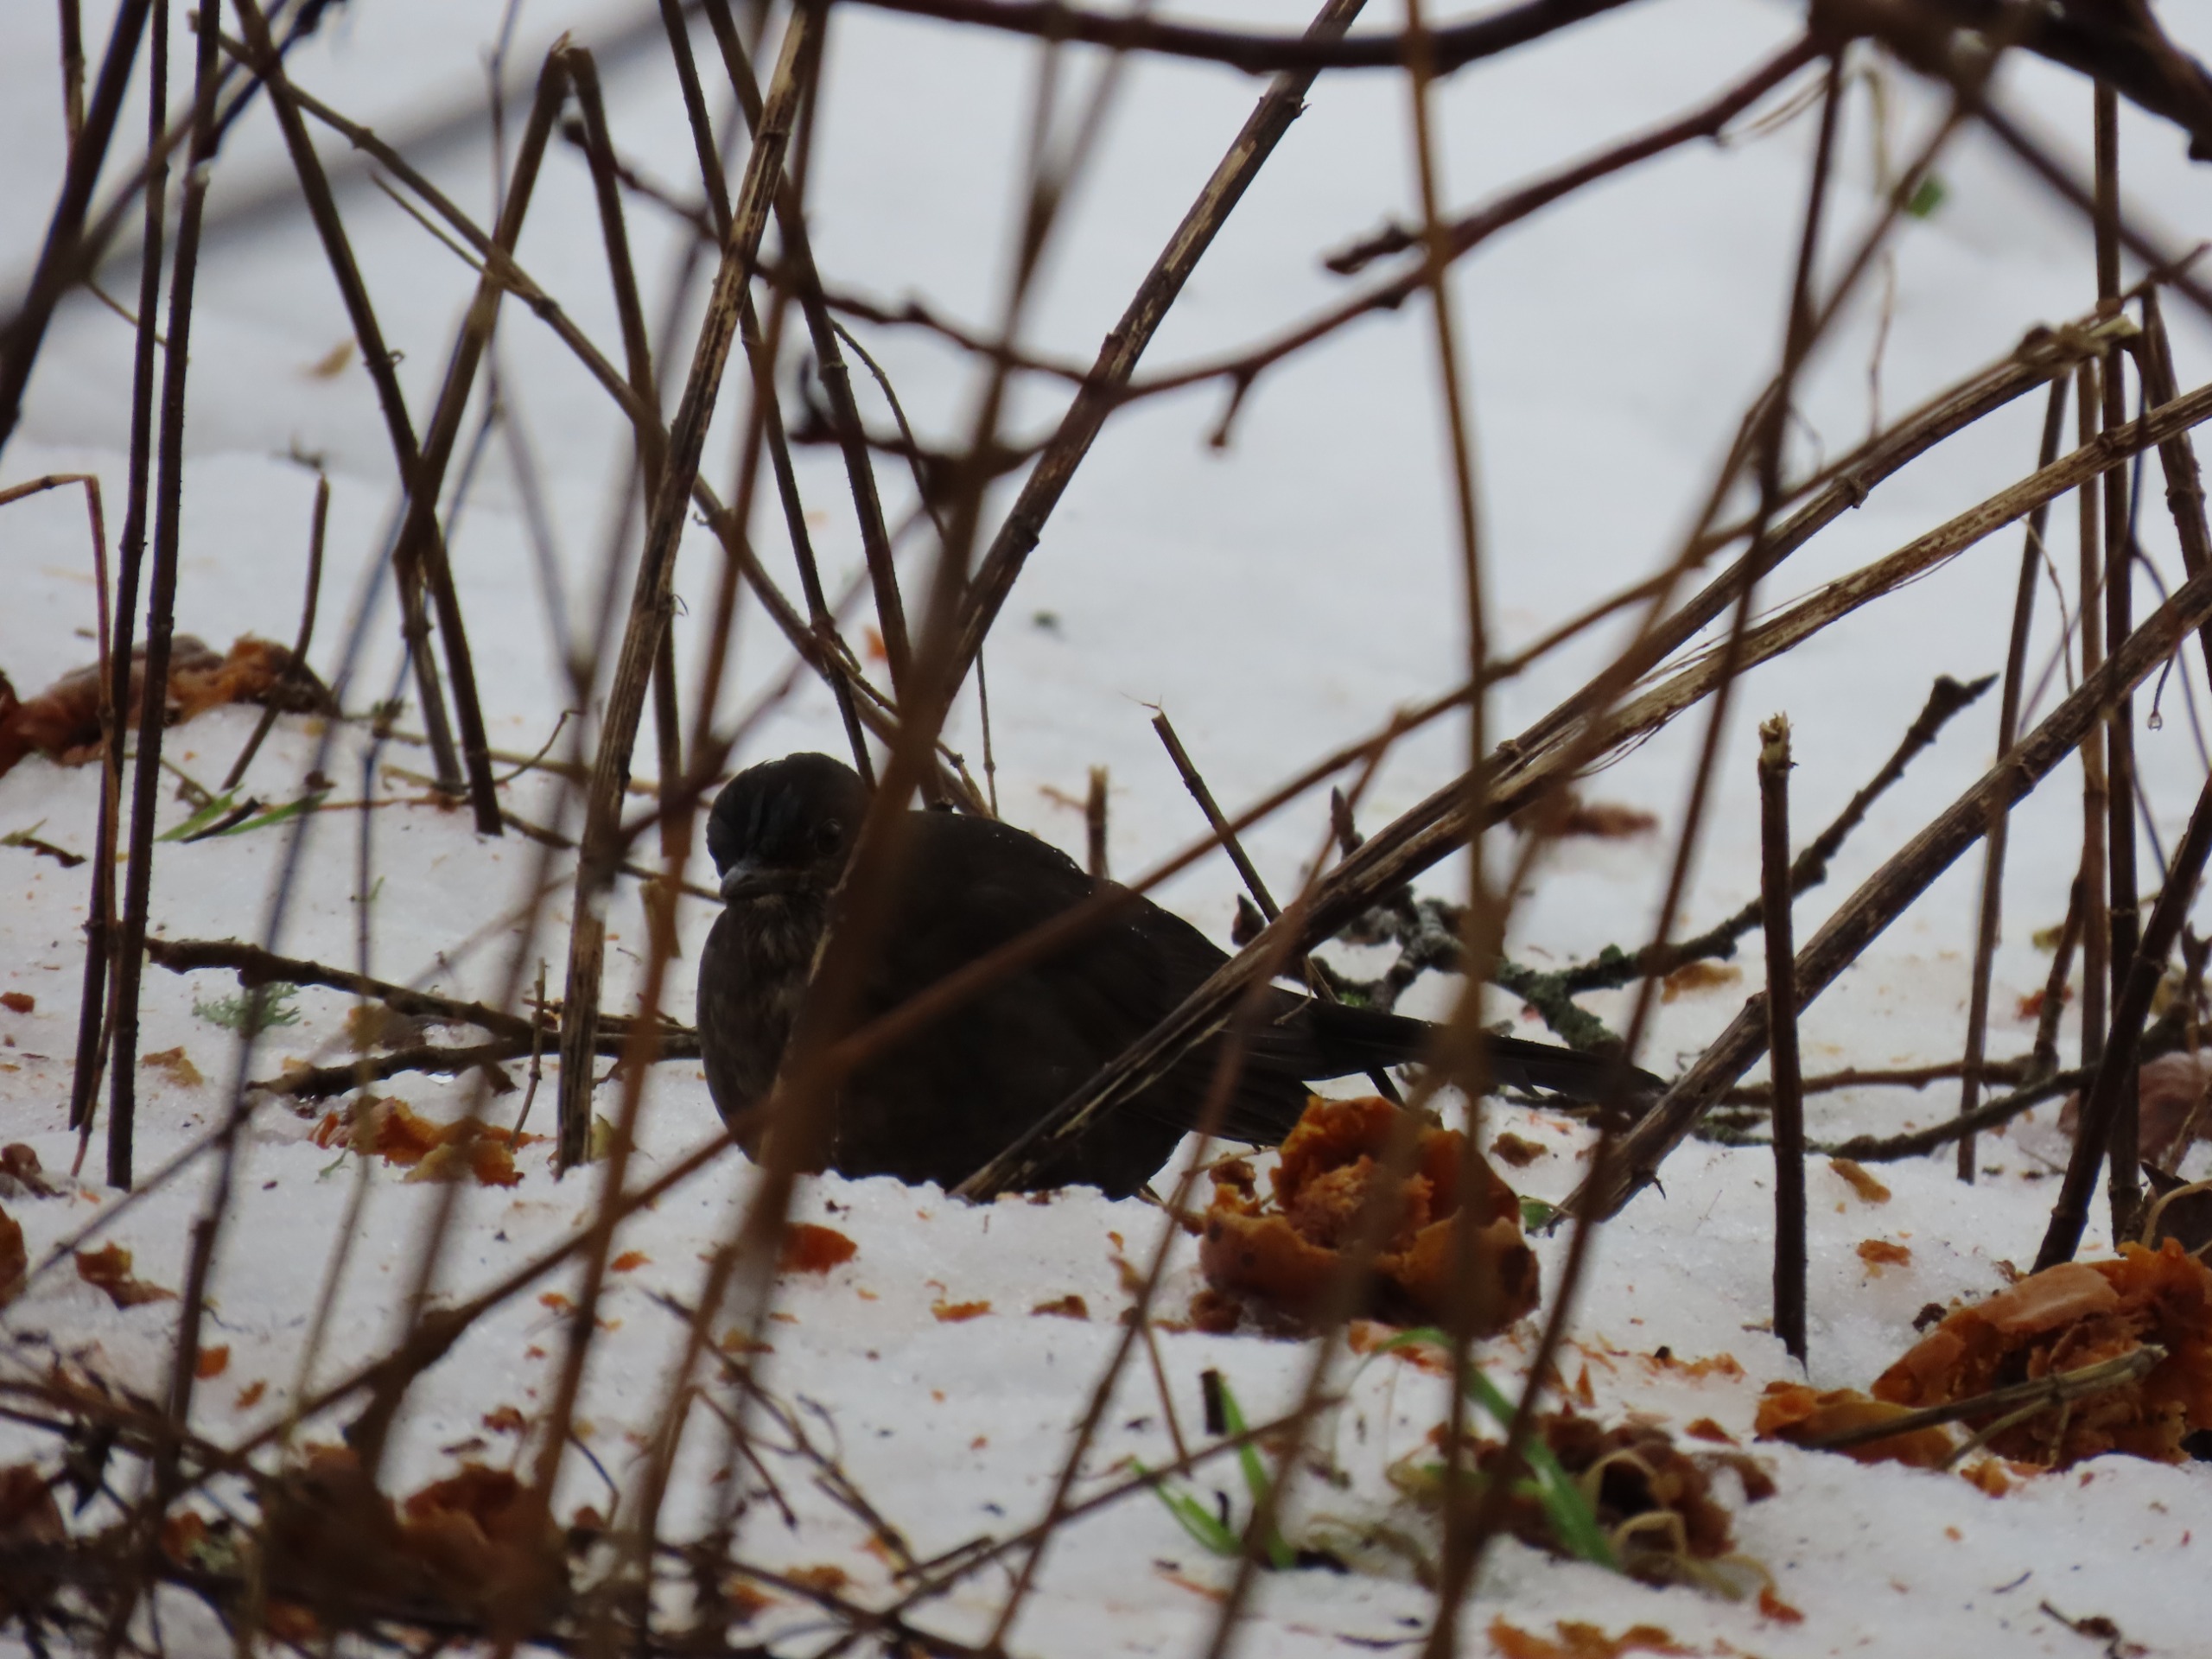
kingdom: Animalia
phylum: Chordata
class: Aves
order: Passeriformes
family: Turdidae
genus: Turdus
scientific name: Turdus merula
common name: Solsort
